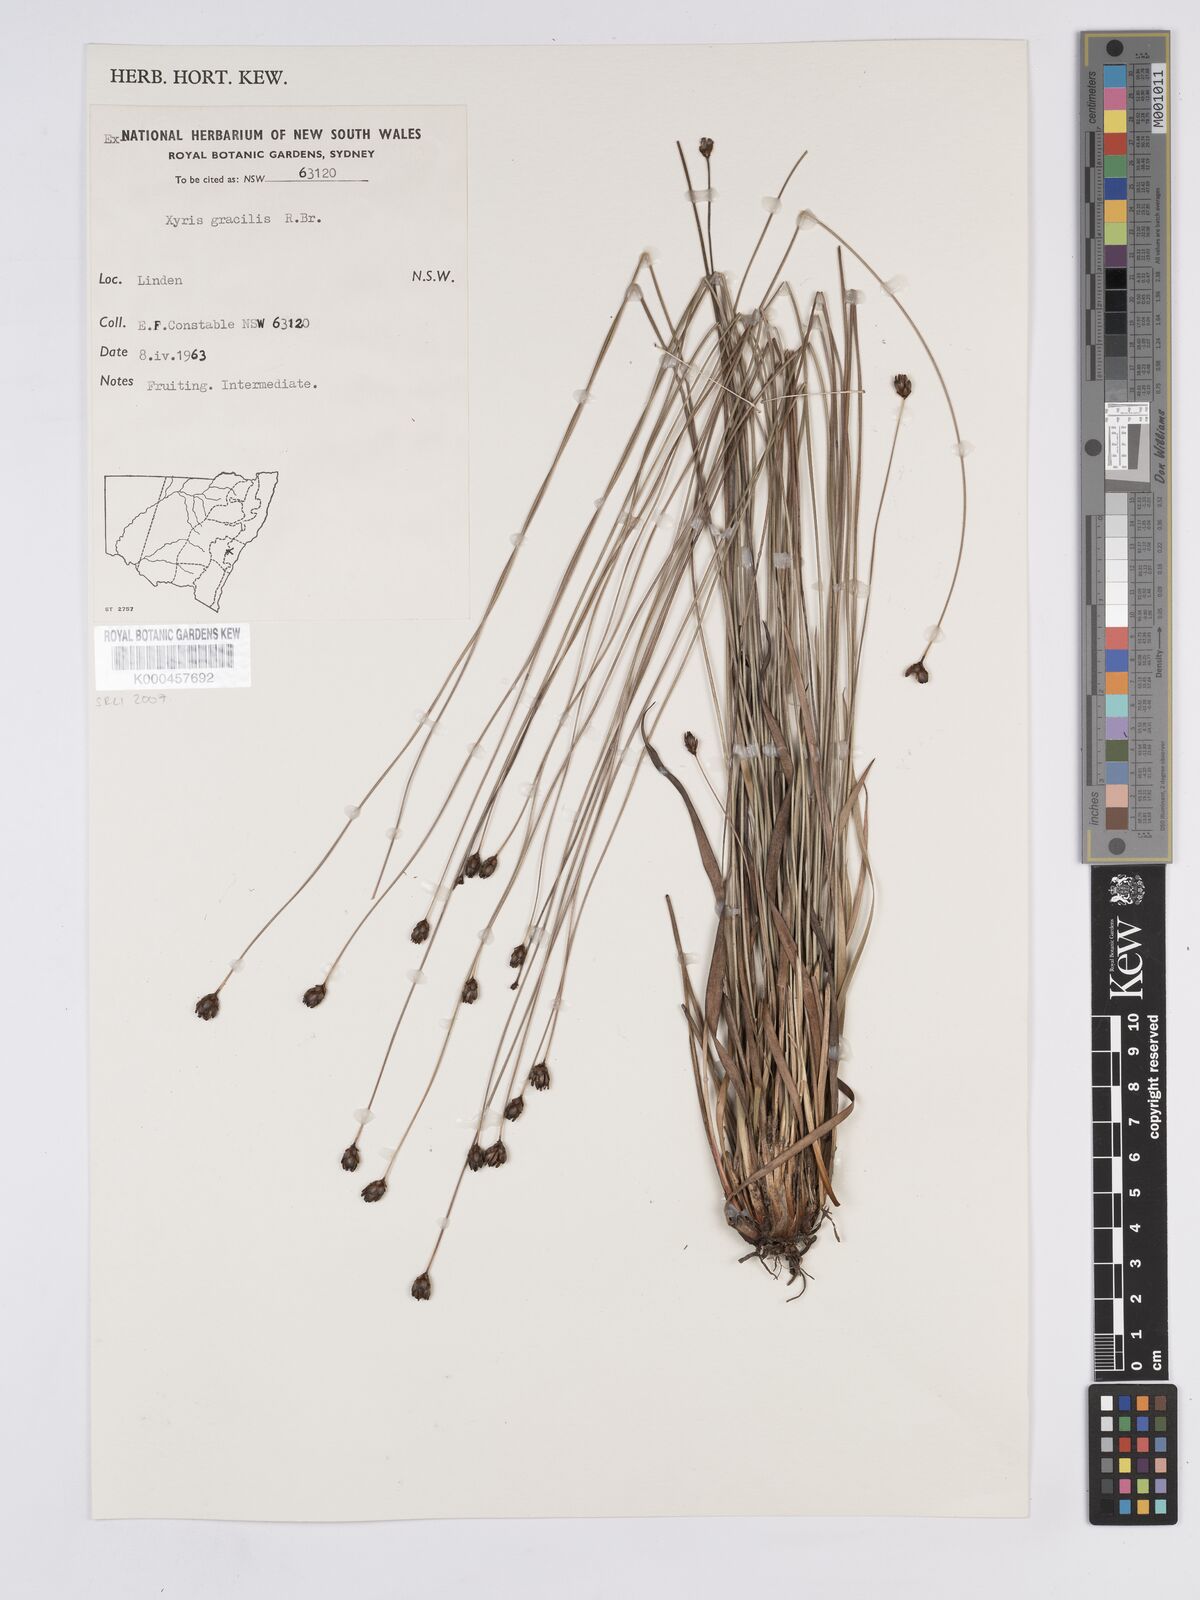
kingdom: Plantae
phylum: Tracheophyta
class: Liliopsida
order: Poales
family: Xyridaceae
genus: Xyris
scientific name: Xyris gracilis
